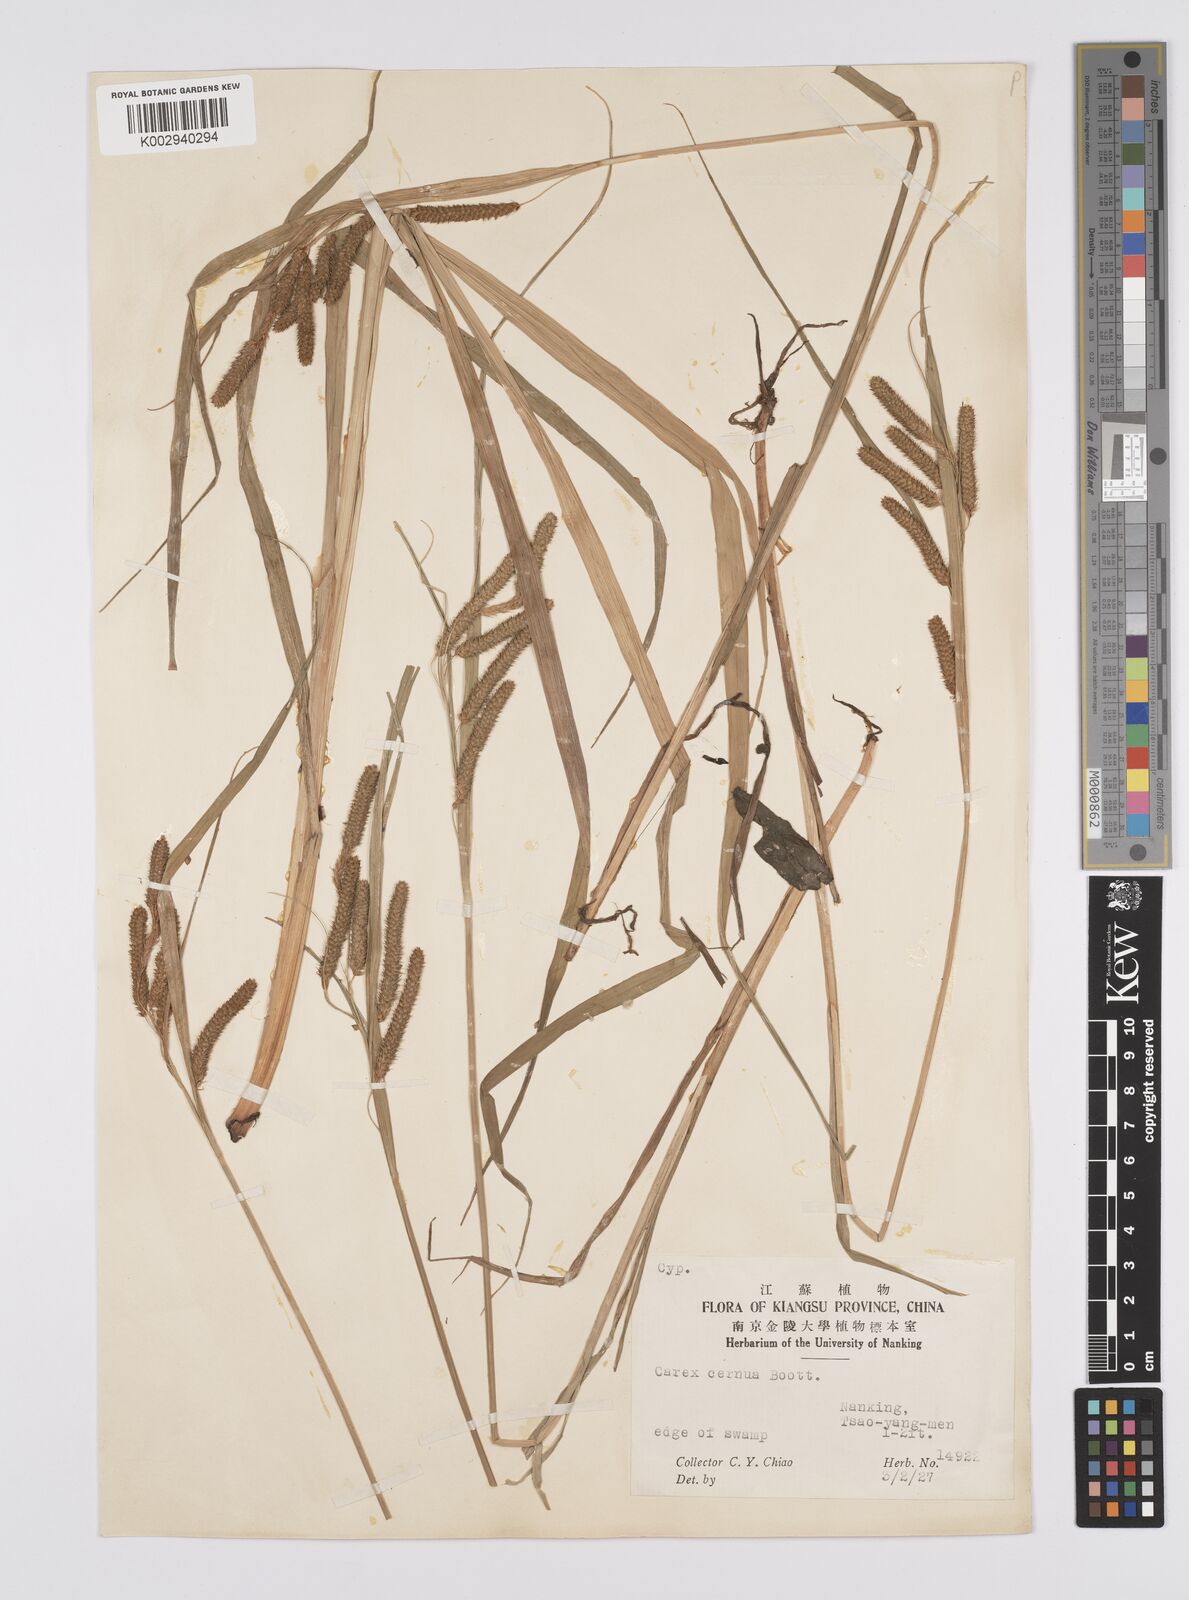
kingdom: Plantae
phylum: Tracheophyta
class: Liliopsida
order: Poales
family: Cyperaceae
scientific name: Cyperaceae
